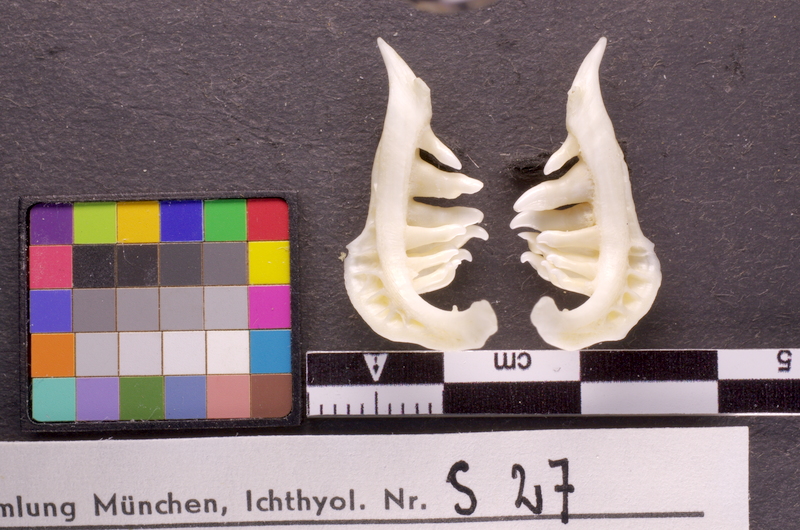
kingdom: Animalia
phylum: Chordata
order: Cypriniformes
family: Cyprinidae
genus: Barbus
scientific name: Barbus barbus
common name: Barbel
